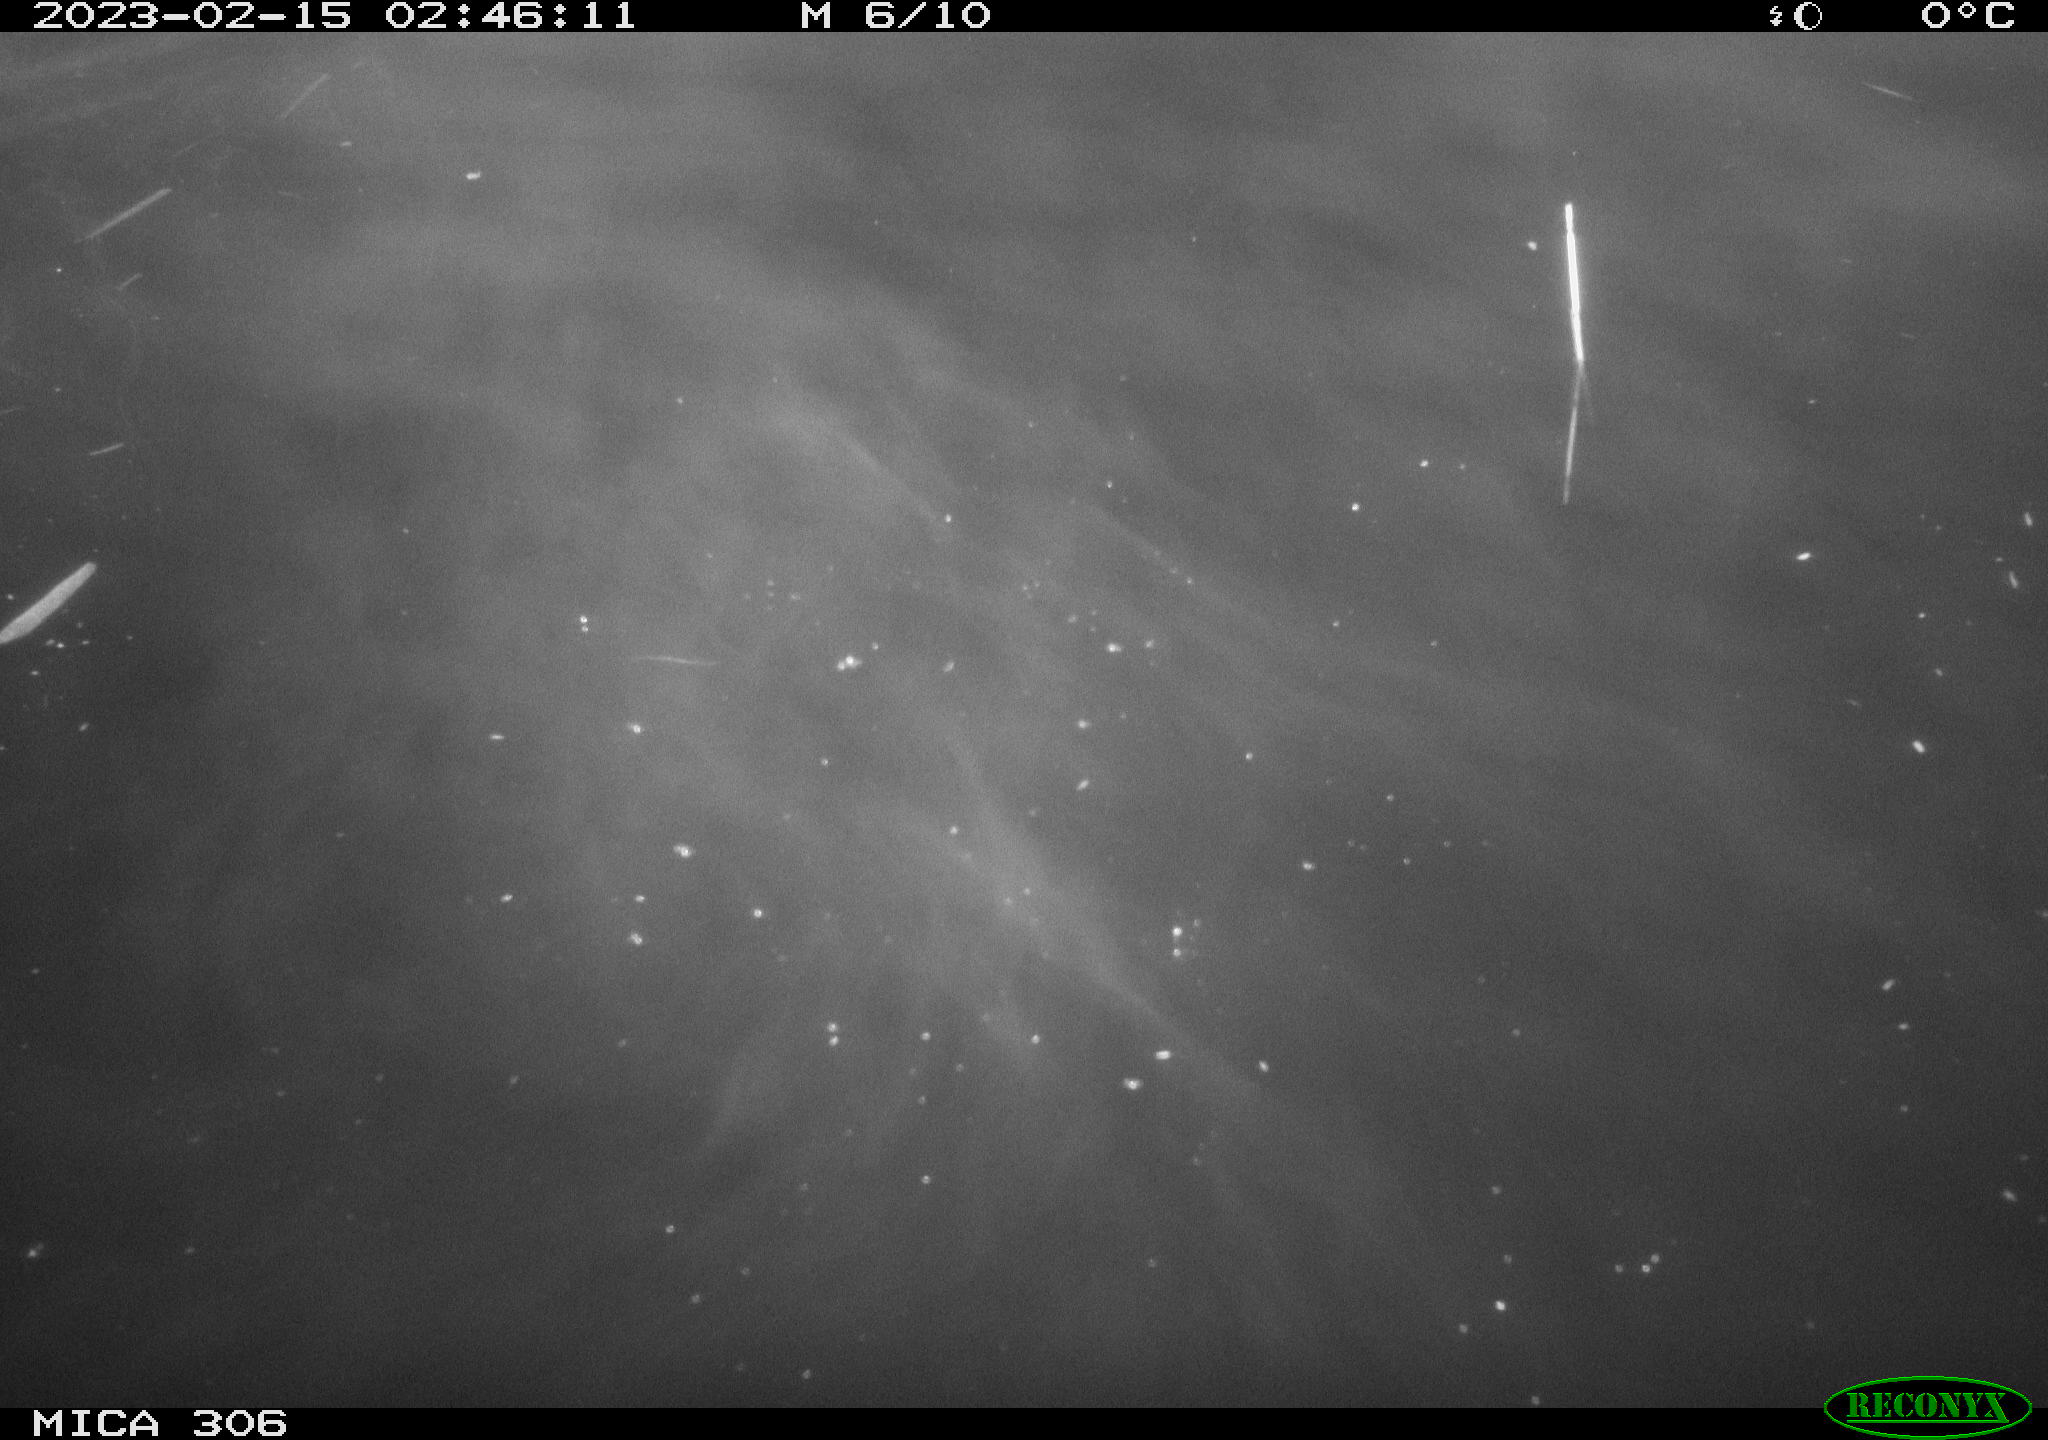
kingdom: Animalia
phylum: Chordata
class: Mammalia
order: Rodentia
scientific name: Rodentia
